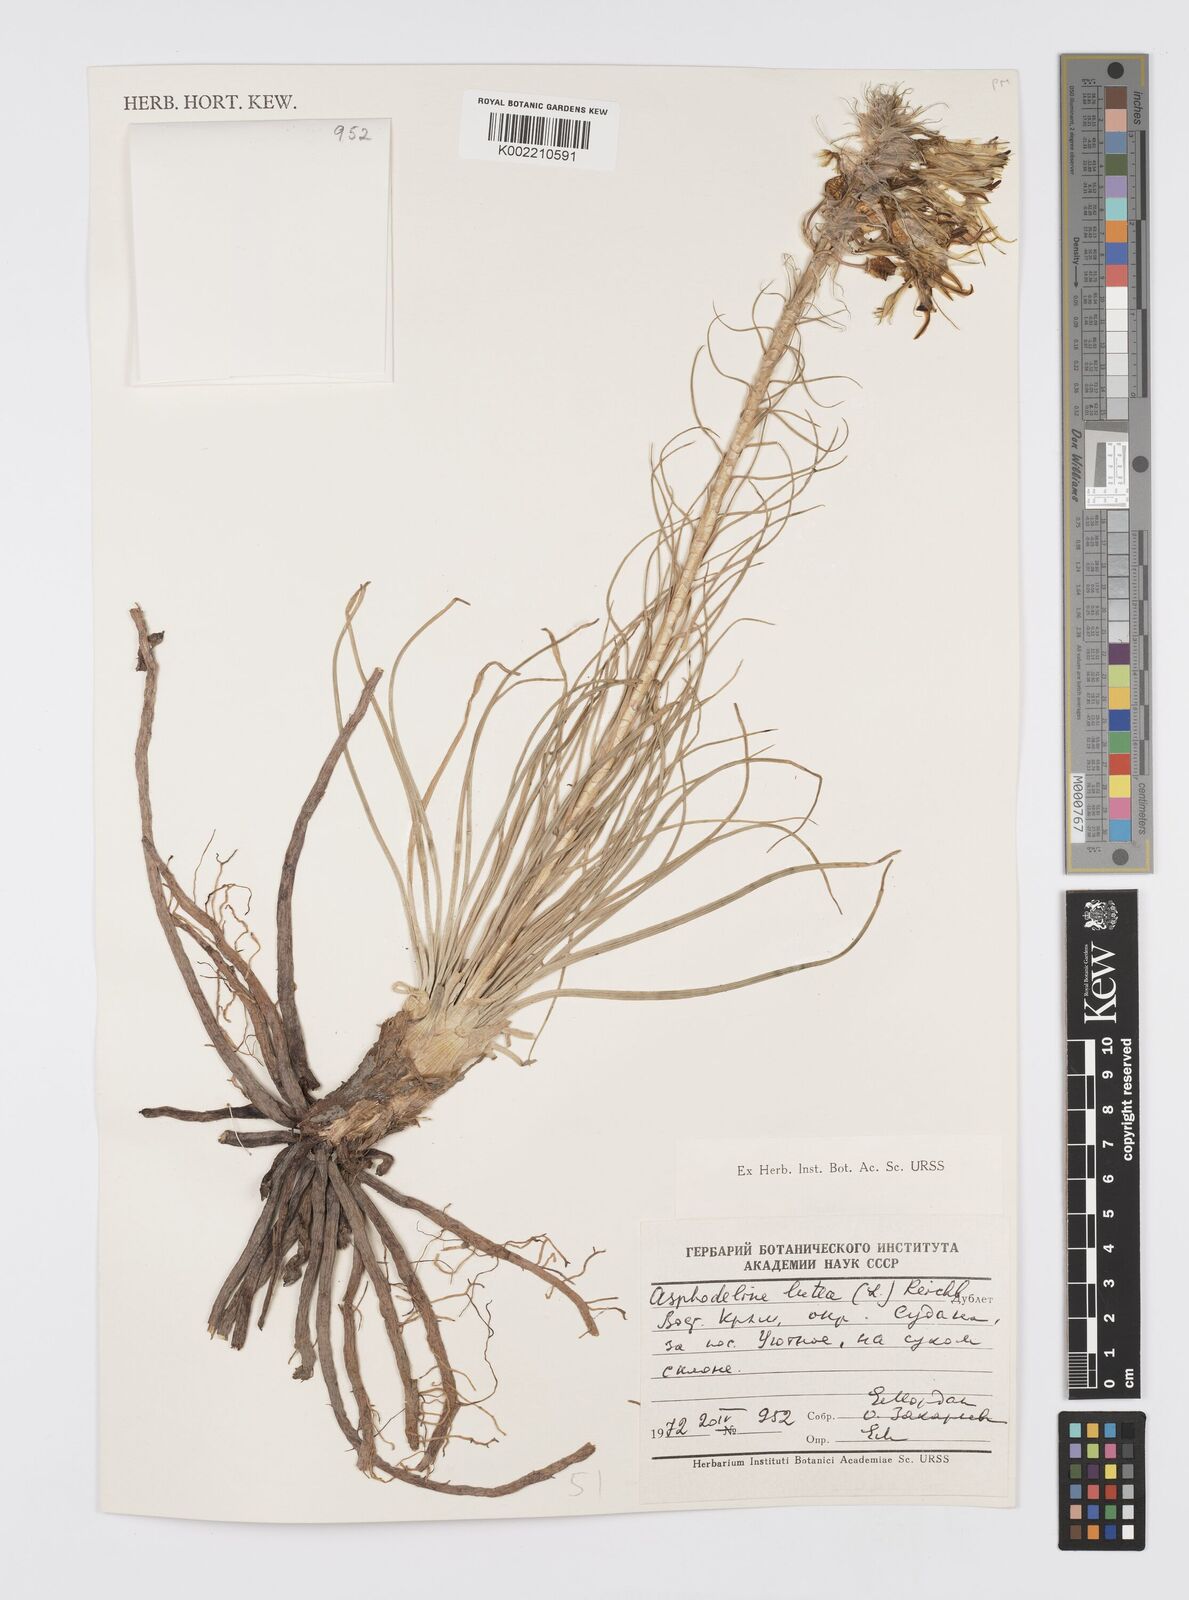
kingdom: Plantae
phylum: Tracheophyta
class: Liliopsida
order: Asparagales
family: Asphodelaceae
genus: Asphodeline
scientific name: Asphodeline lutea
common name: Yellow asphodel
